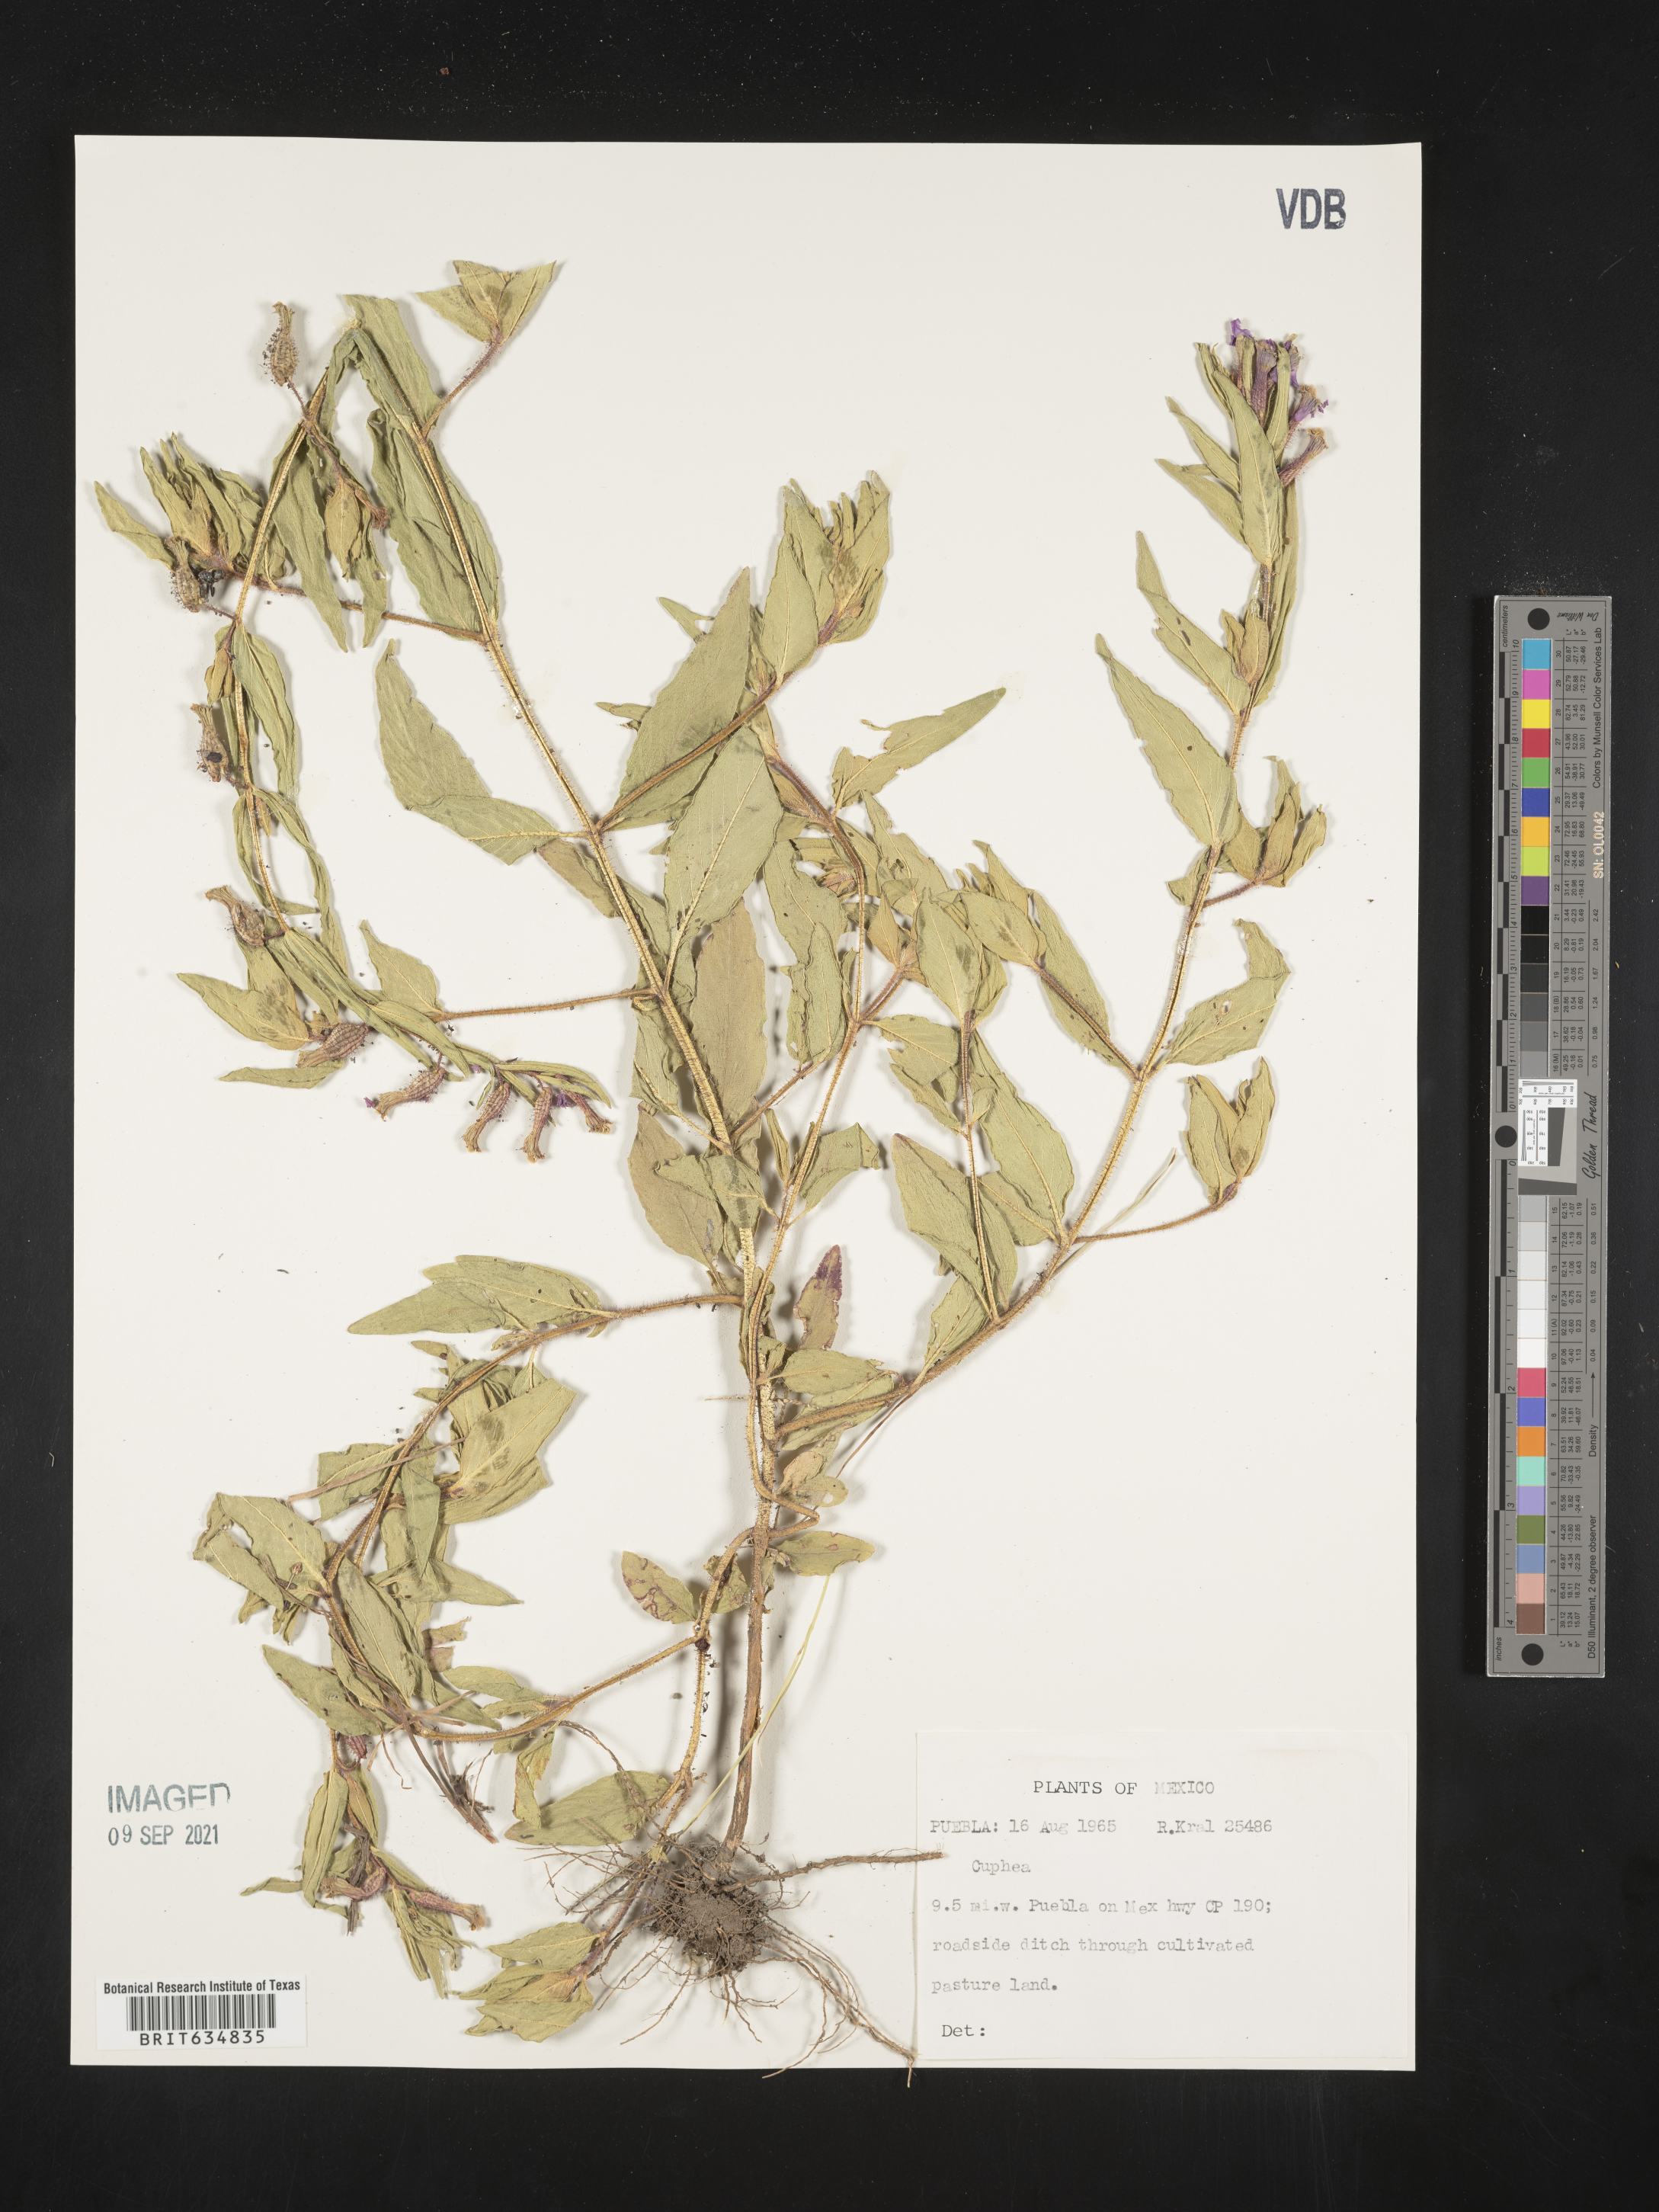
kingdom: Plantae
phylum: Tracheophyta
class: Magnoliopsida
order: Myrtales
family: Lythraceae
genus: Cuphea
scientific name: Cuphea
